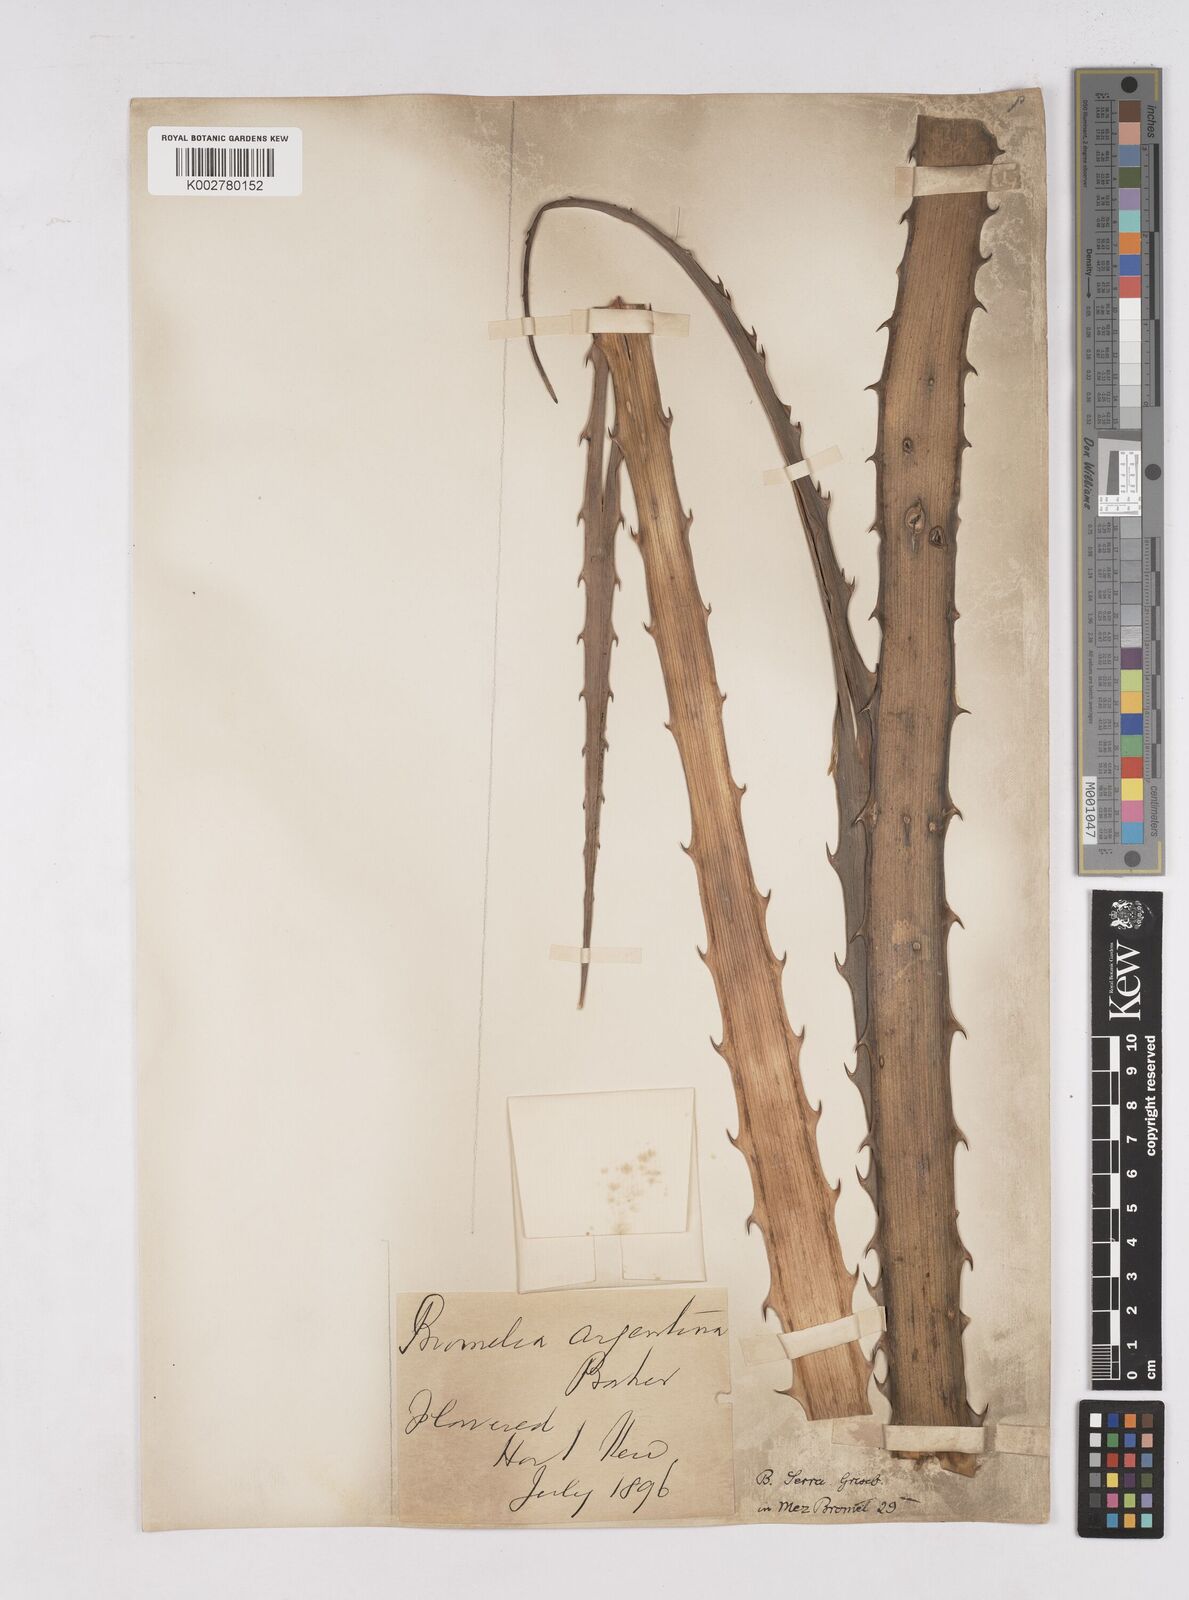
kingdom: Plantae
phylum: Tracheophyta
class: Liliopsida
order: Poales
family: Bromeliaceae
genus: Bromelia
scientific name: Bromelia serra
